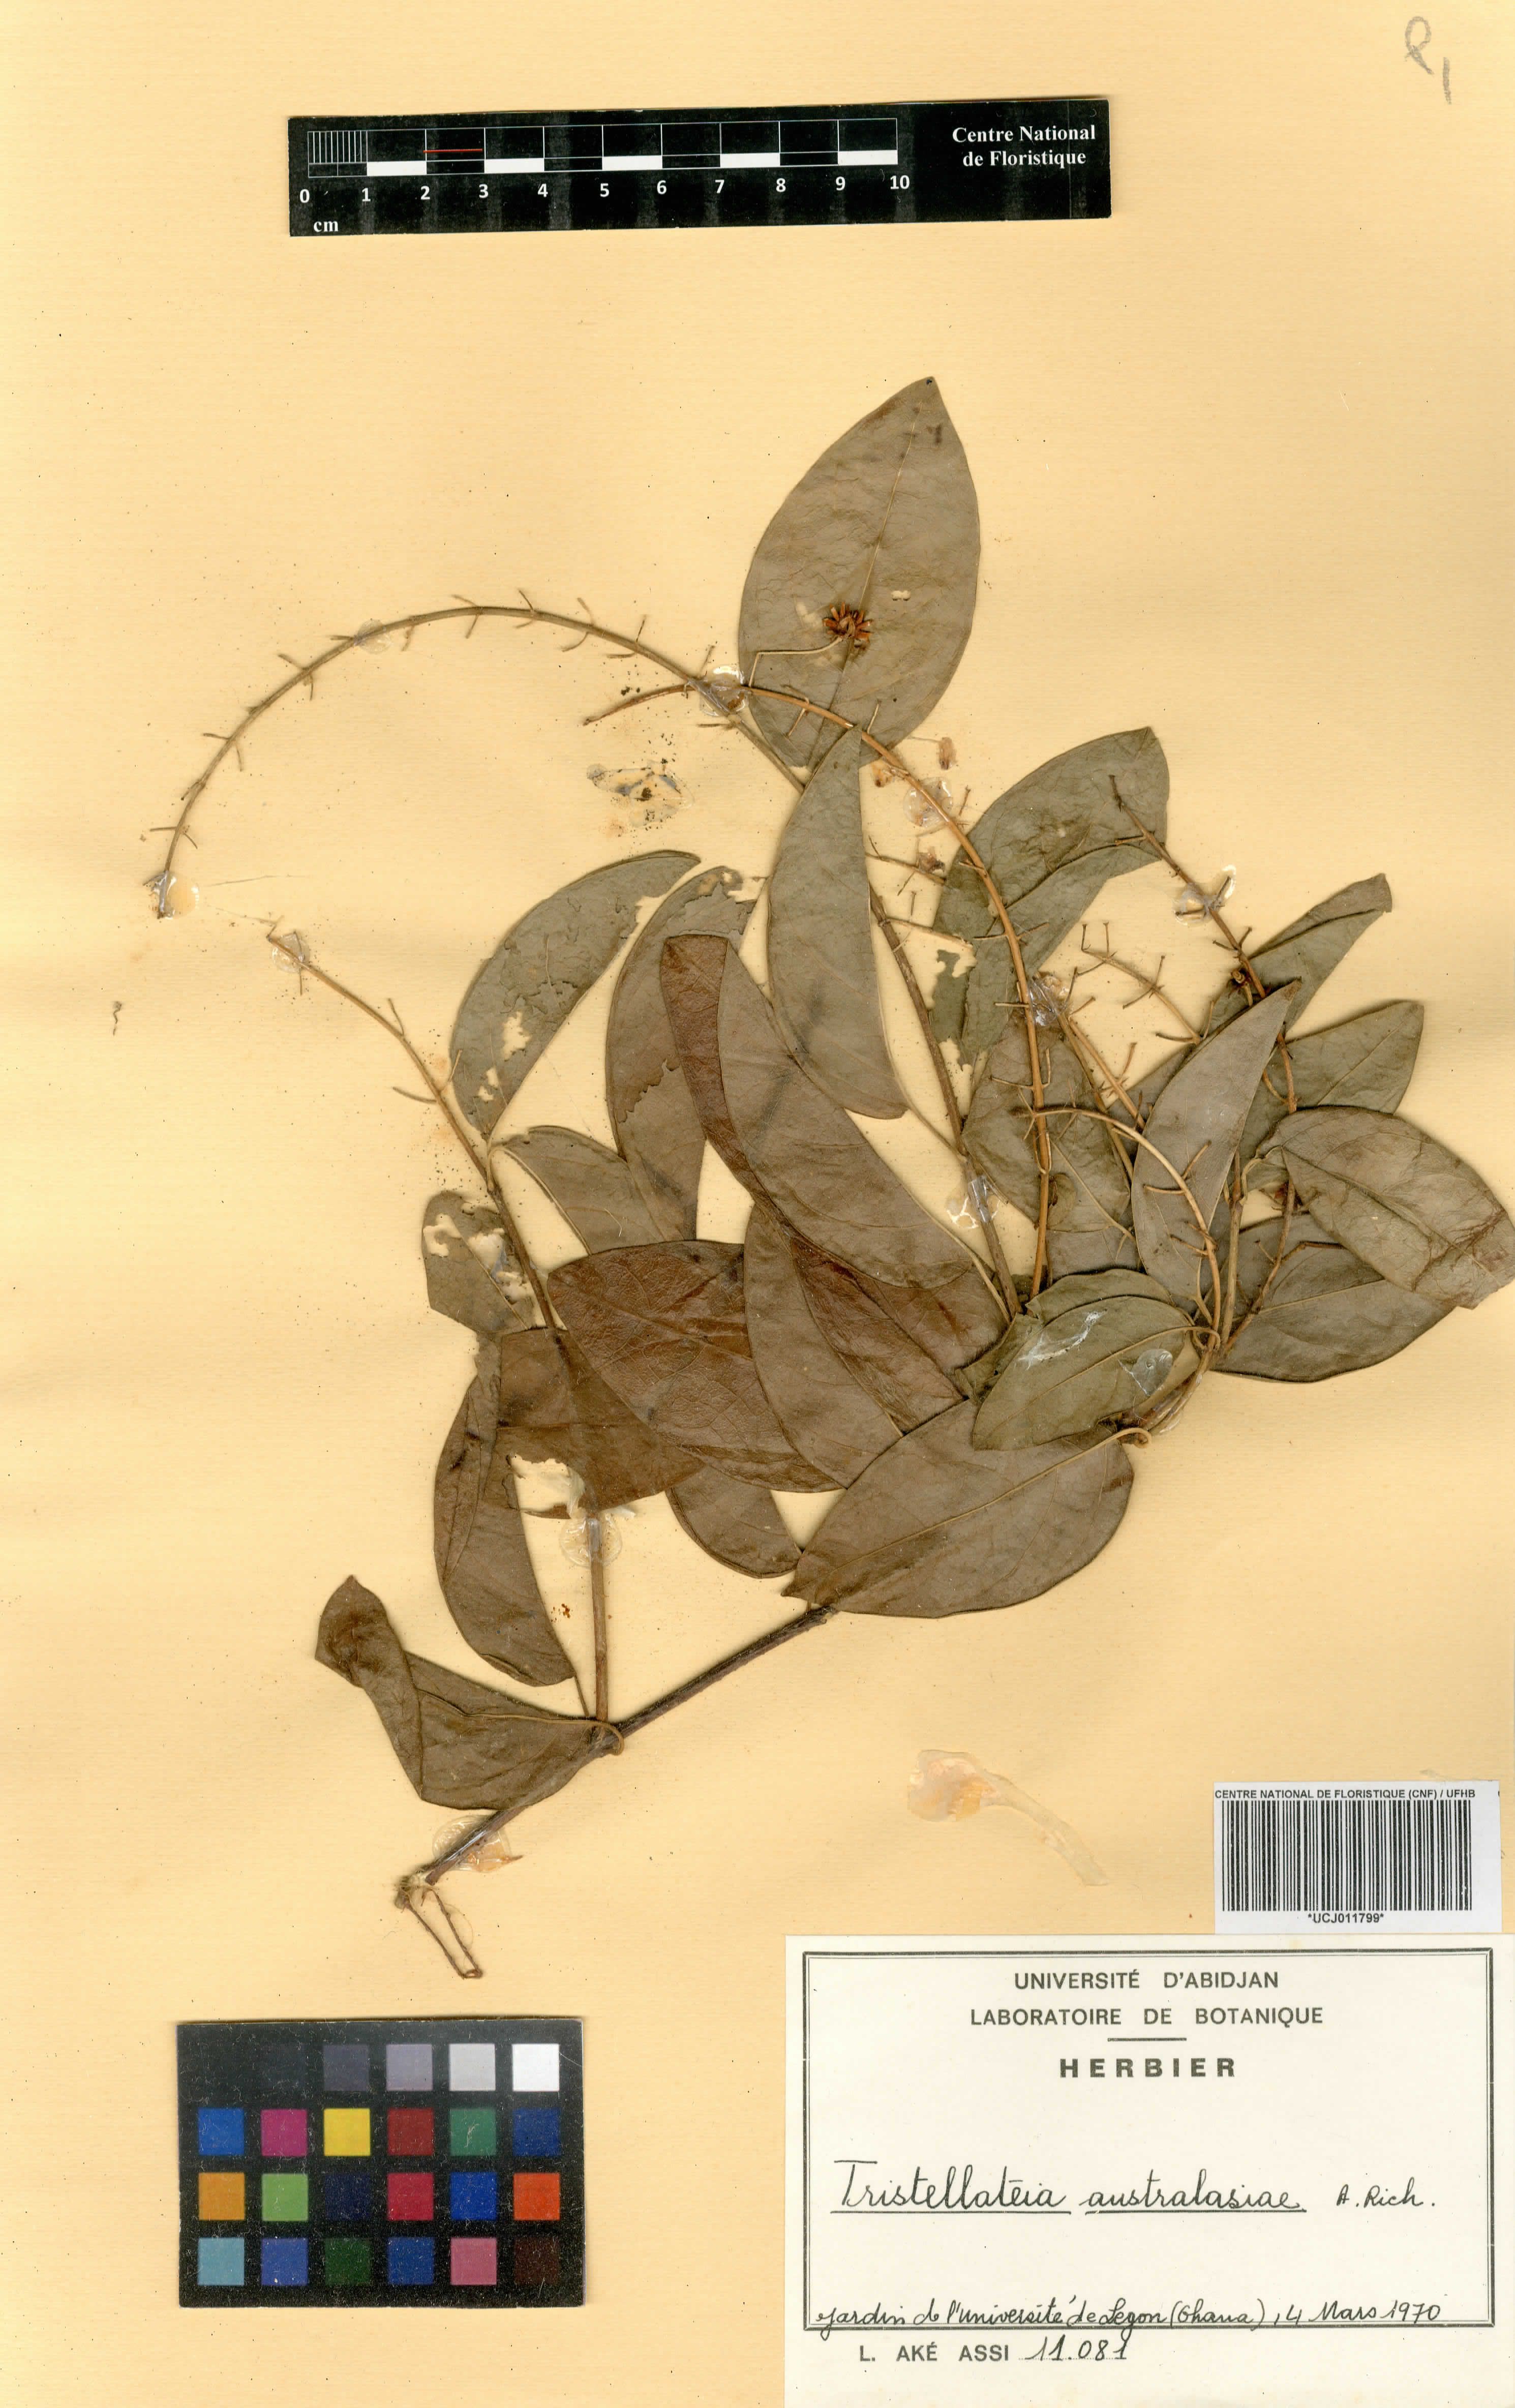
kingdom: Plantae
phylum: Tracheophyta
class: Magnoliopsida
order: Malpighiales
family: Malpighiaceae
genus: Tristellateia
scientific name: Tristellateia australasiae
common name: Australian goldvine
